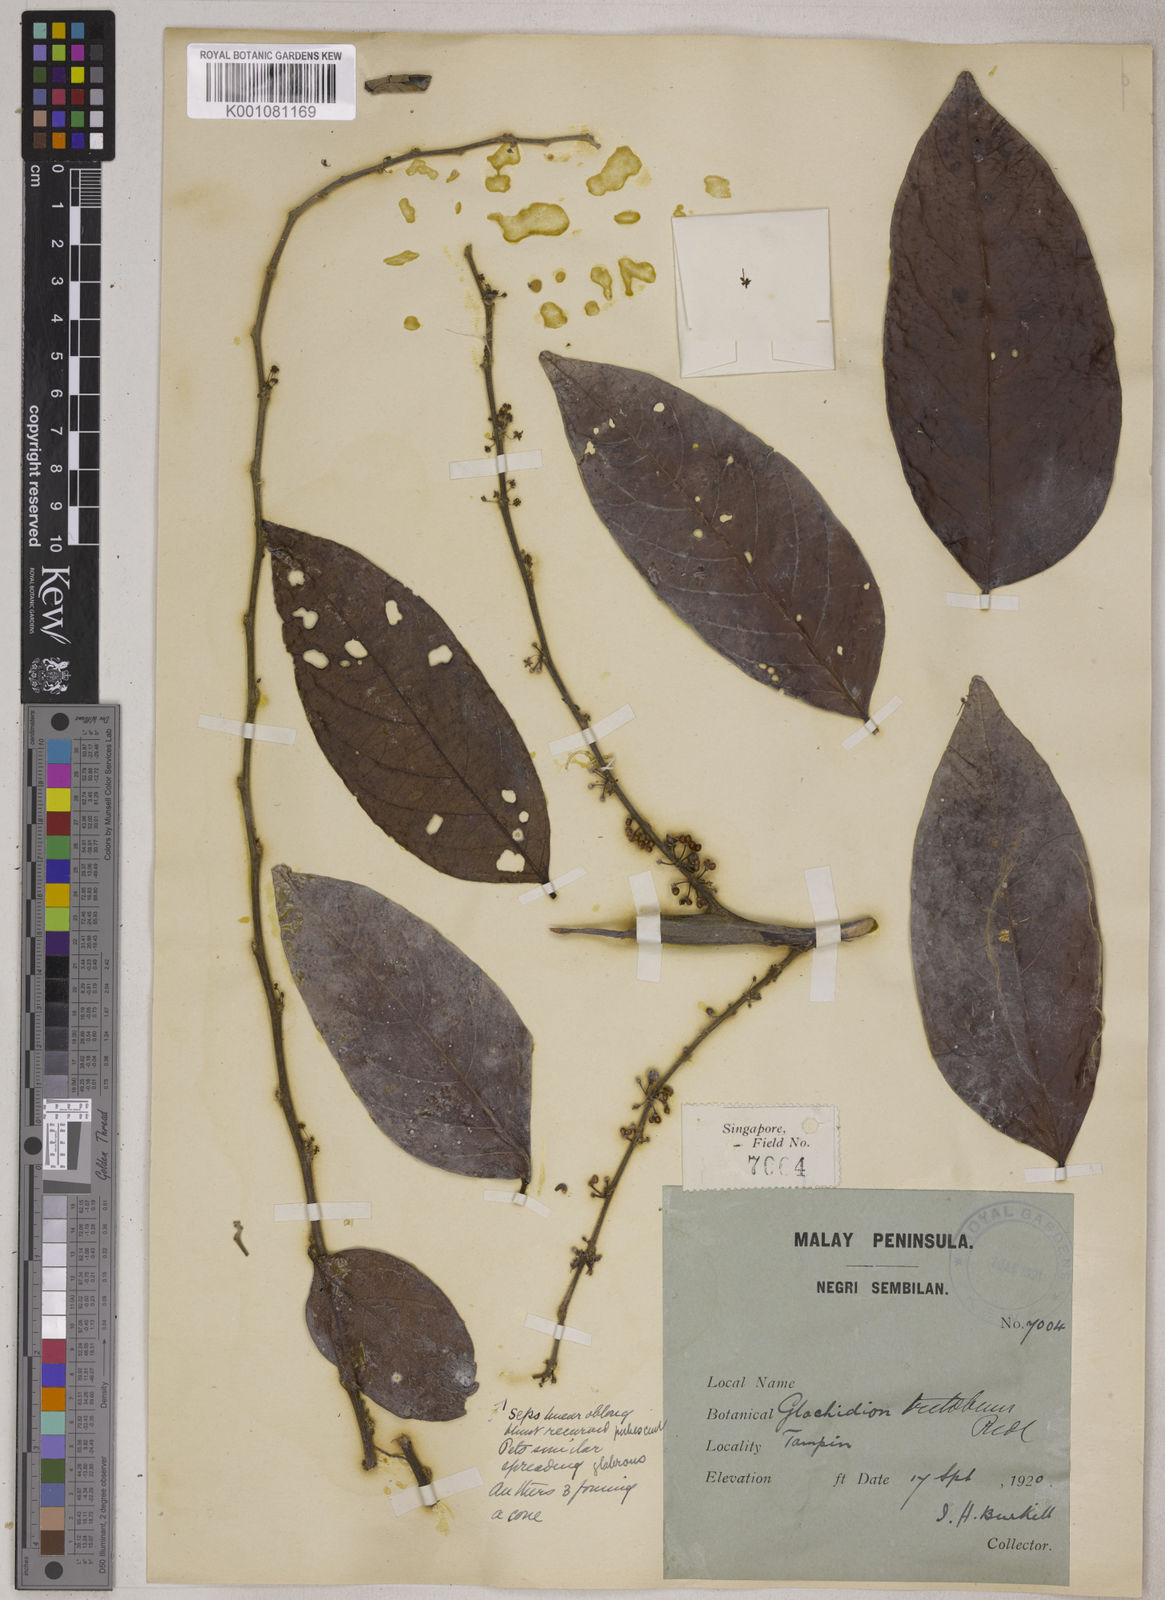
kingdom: Plantae
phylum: Tracheophyta
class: Magnoliopsida
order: Malpighiales
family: Phyllanthaceae
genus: Glochidion
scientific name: Glochidion
